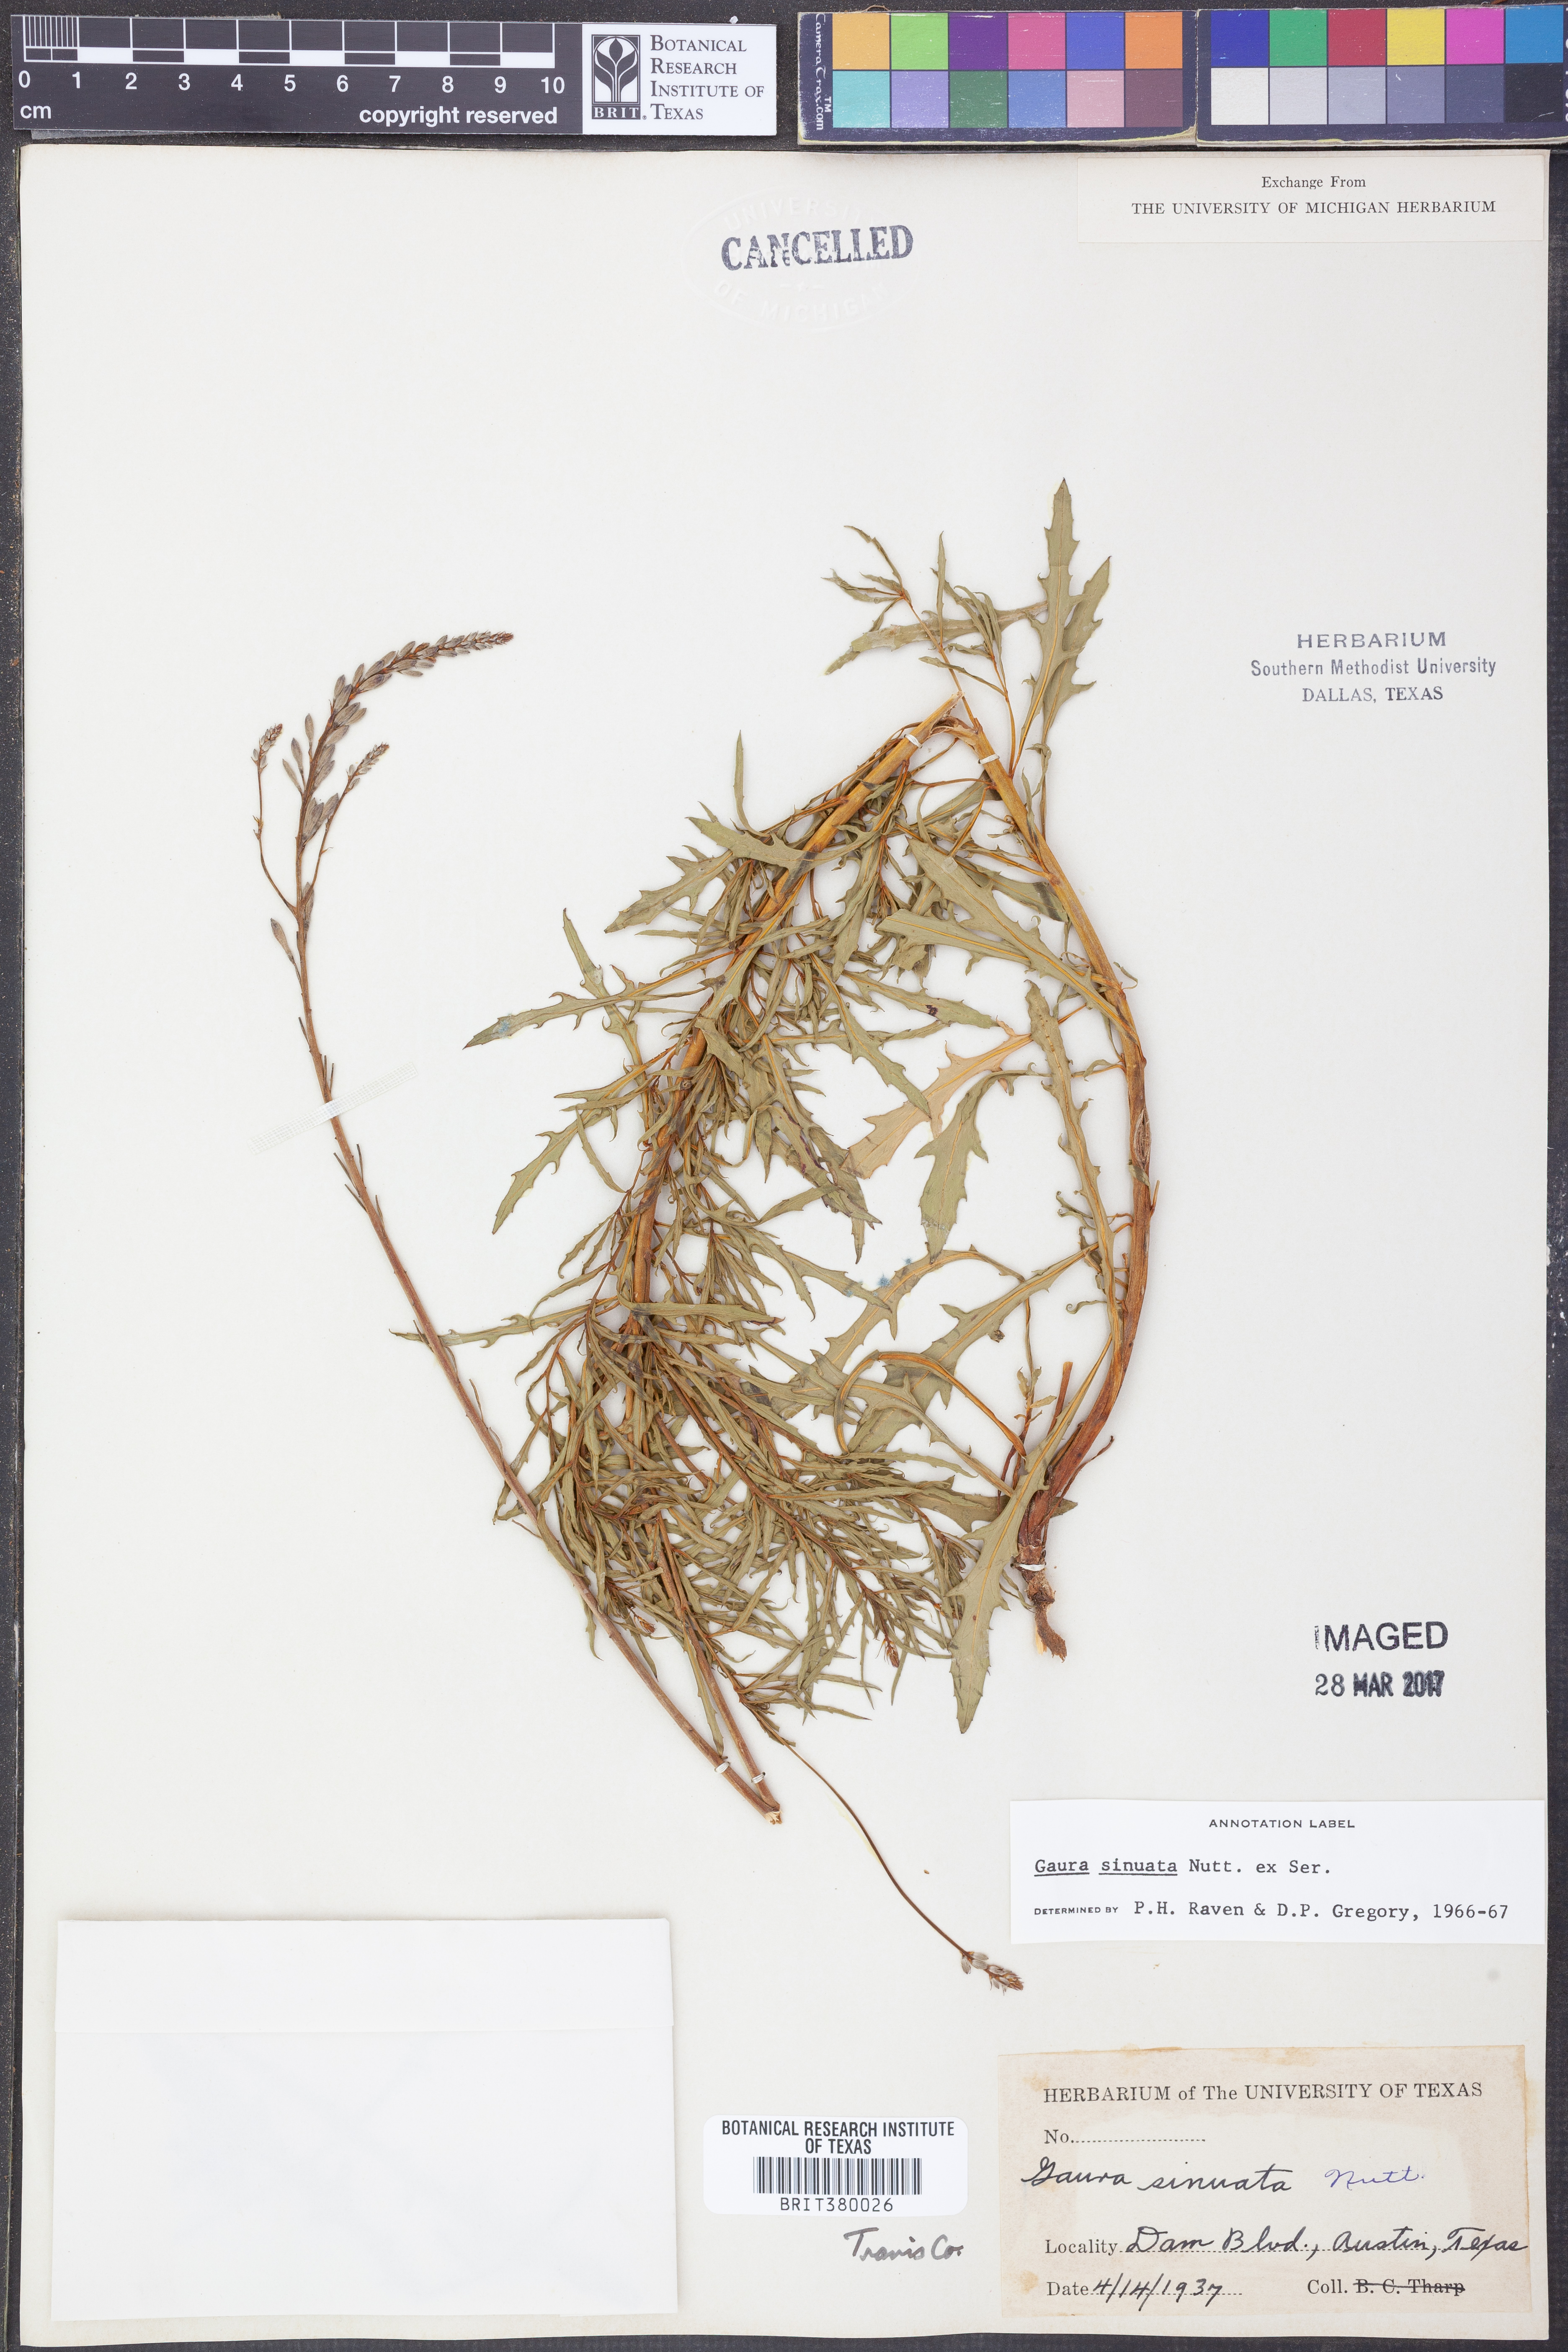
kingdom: Plantae
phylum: Tracheophyta
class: Magnoliopsida
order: Myrtales
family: Onagraceae
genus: Oenothera
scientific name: Oenothera sinuosa
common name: Wavyleaf beeblossom
